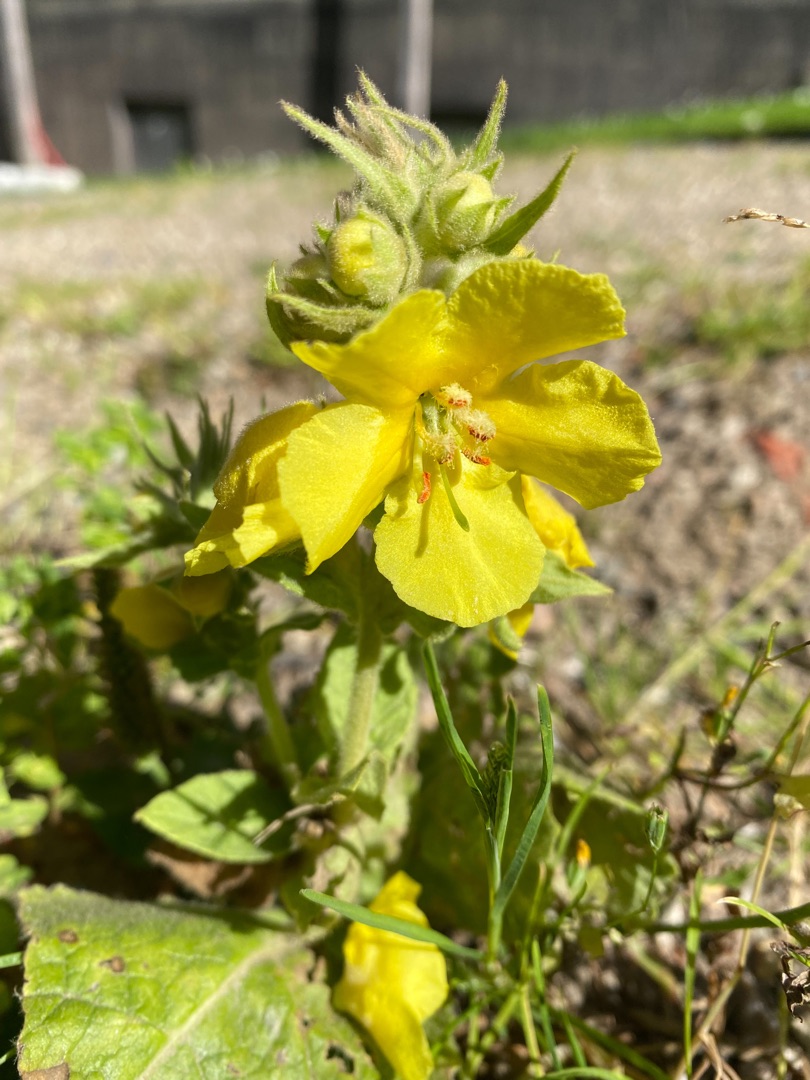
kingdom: Plantae
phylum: Tracheophyta
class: Magnoliopsida
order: Lamiales
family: Scrophulariaceae
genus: Verbascum
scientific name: Verbascum
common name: Kongelysslægten
